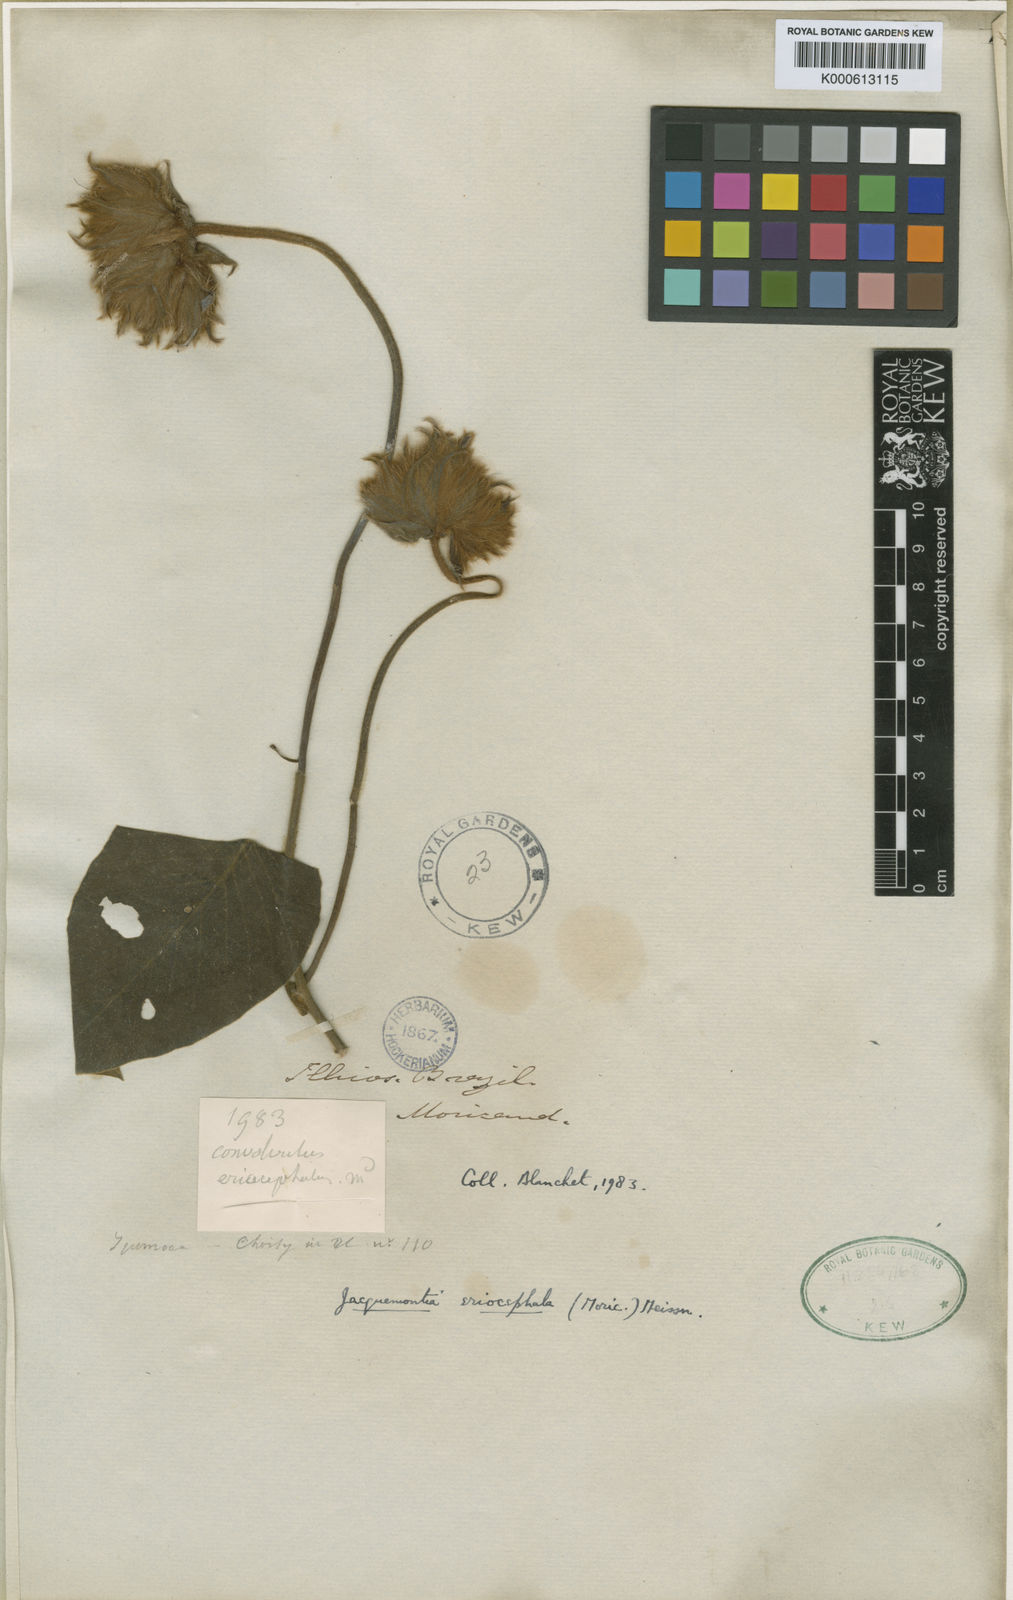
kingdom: Plantae
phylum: Tracheophyta
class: Magnoliopsida
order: Solanales
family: Convolvulaceae
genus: Odonellia
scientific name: Odonellia eriocephala
